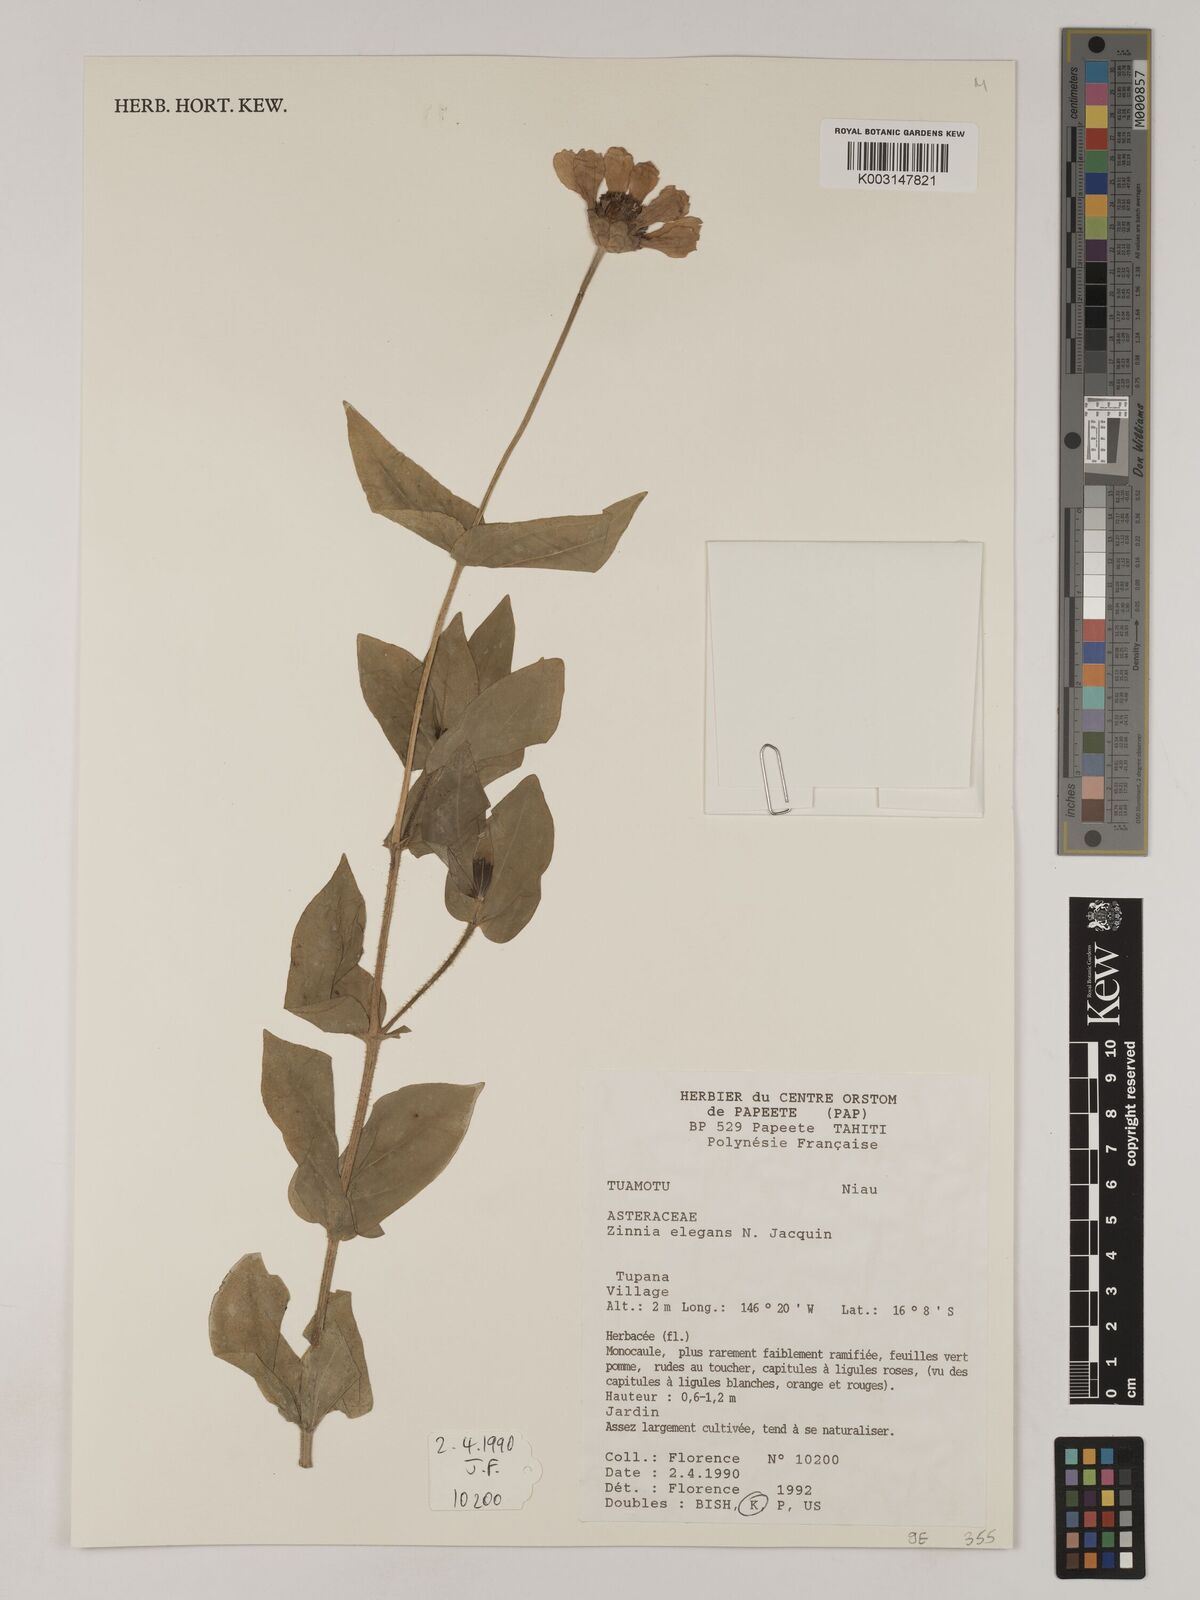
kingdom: Plantae
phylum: Tracheophyta
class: Magnoliopsida
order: Asterales
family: Asteraceae
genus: Zinnia
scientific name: Zinnia elegans
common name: Youth-and-age
